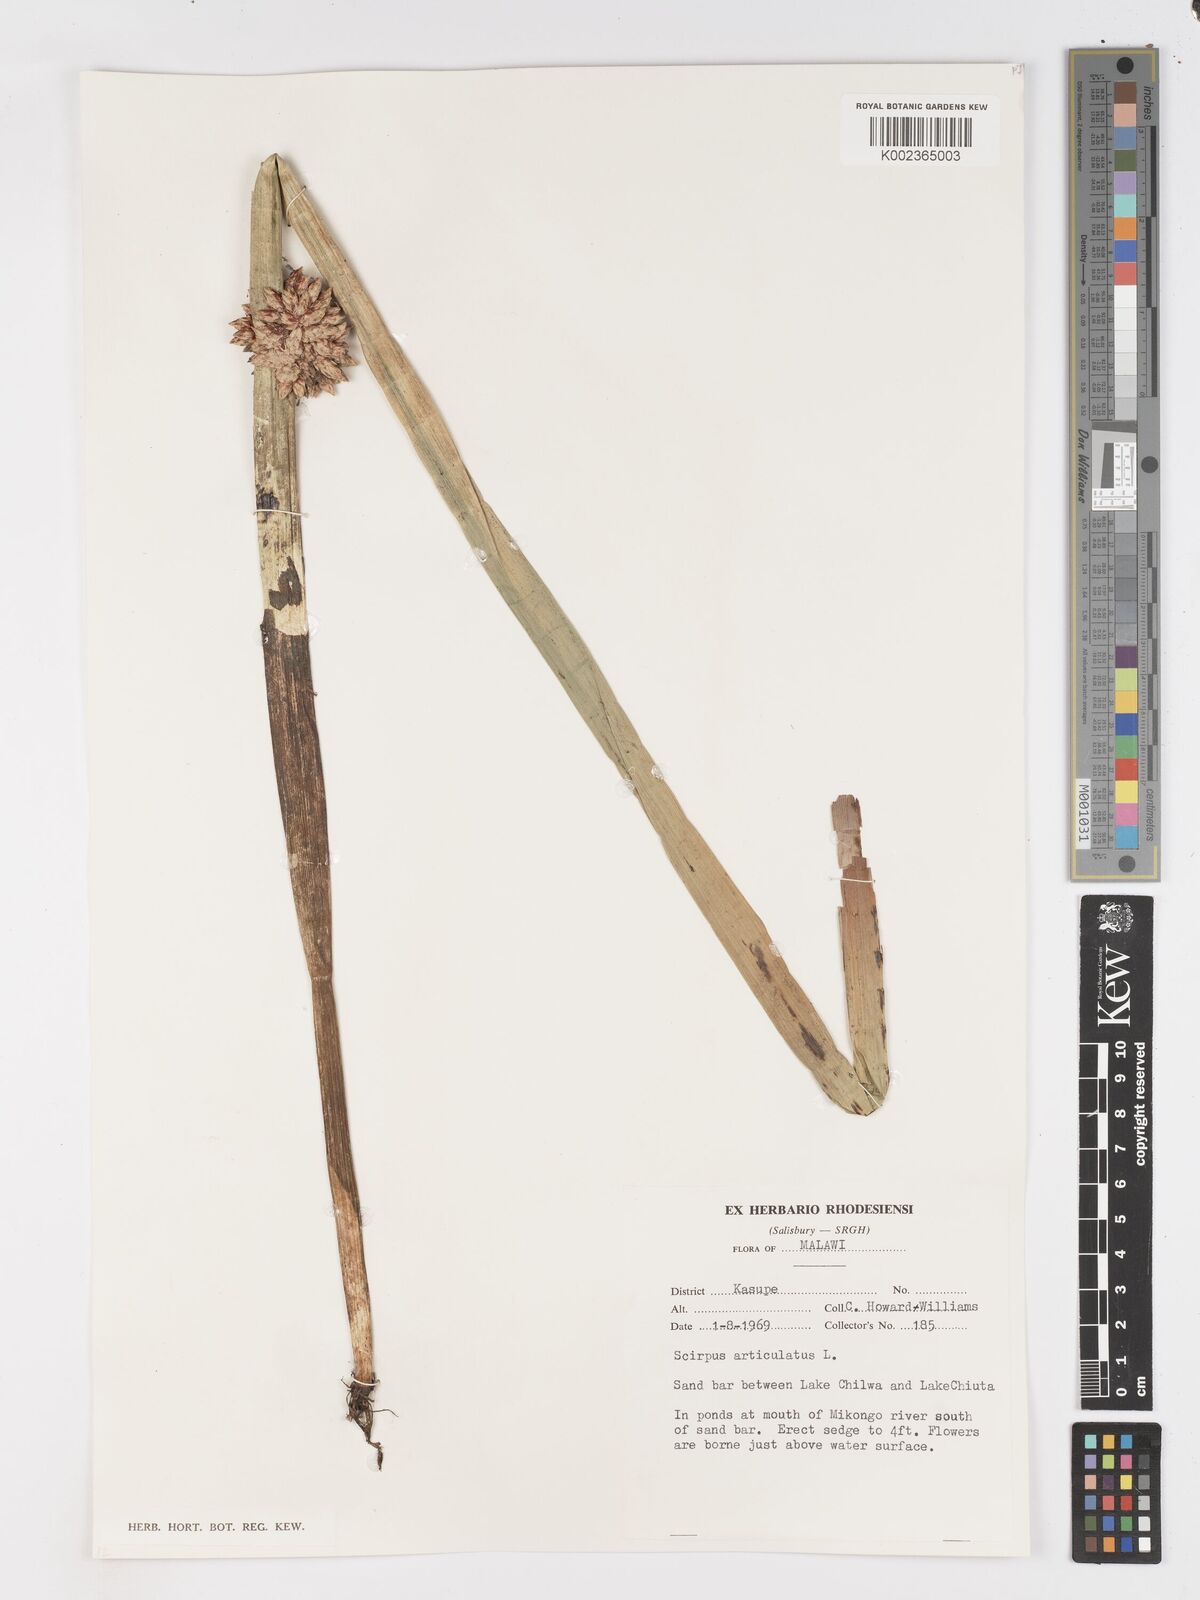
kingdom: Plantae
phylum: Tracheophyta
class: Liliopsida
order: Poales
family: Cyperaceae
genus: Schoenoplectiella
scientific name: Schoenoplectiella articulata
